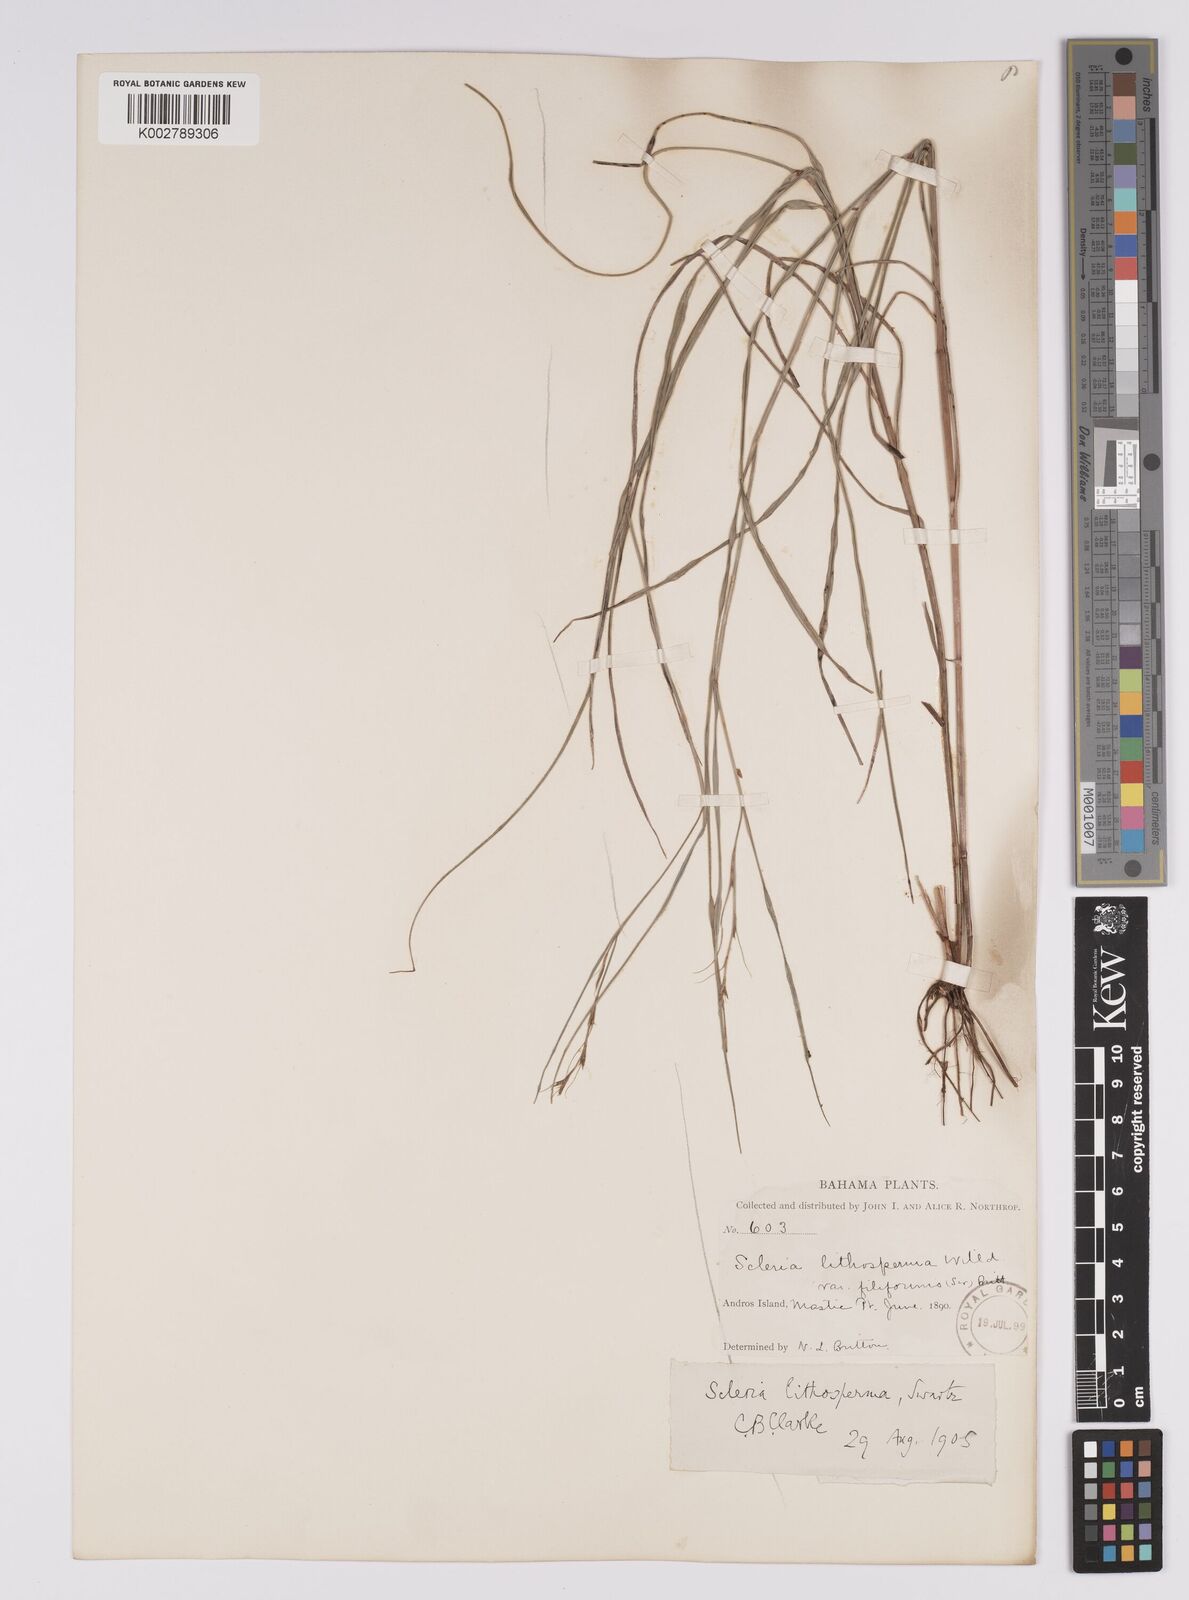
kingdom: Plantae
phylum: Tracheophyta
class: Liliopsida
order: Poales
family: Cyperaceae
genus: Scleria
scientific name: Scleria lithosperma
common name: Florida keys nut-rush
